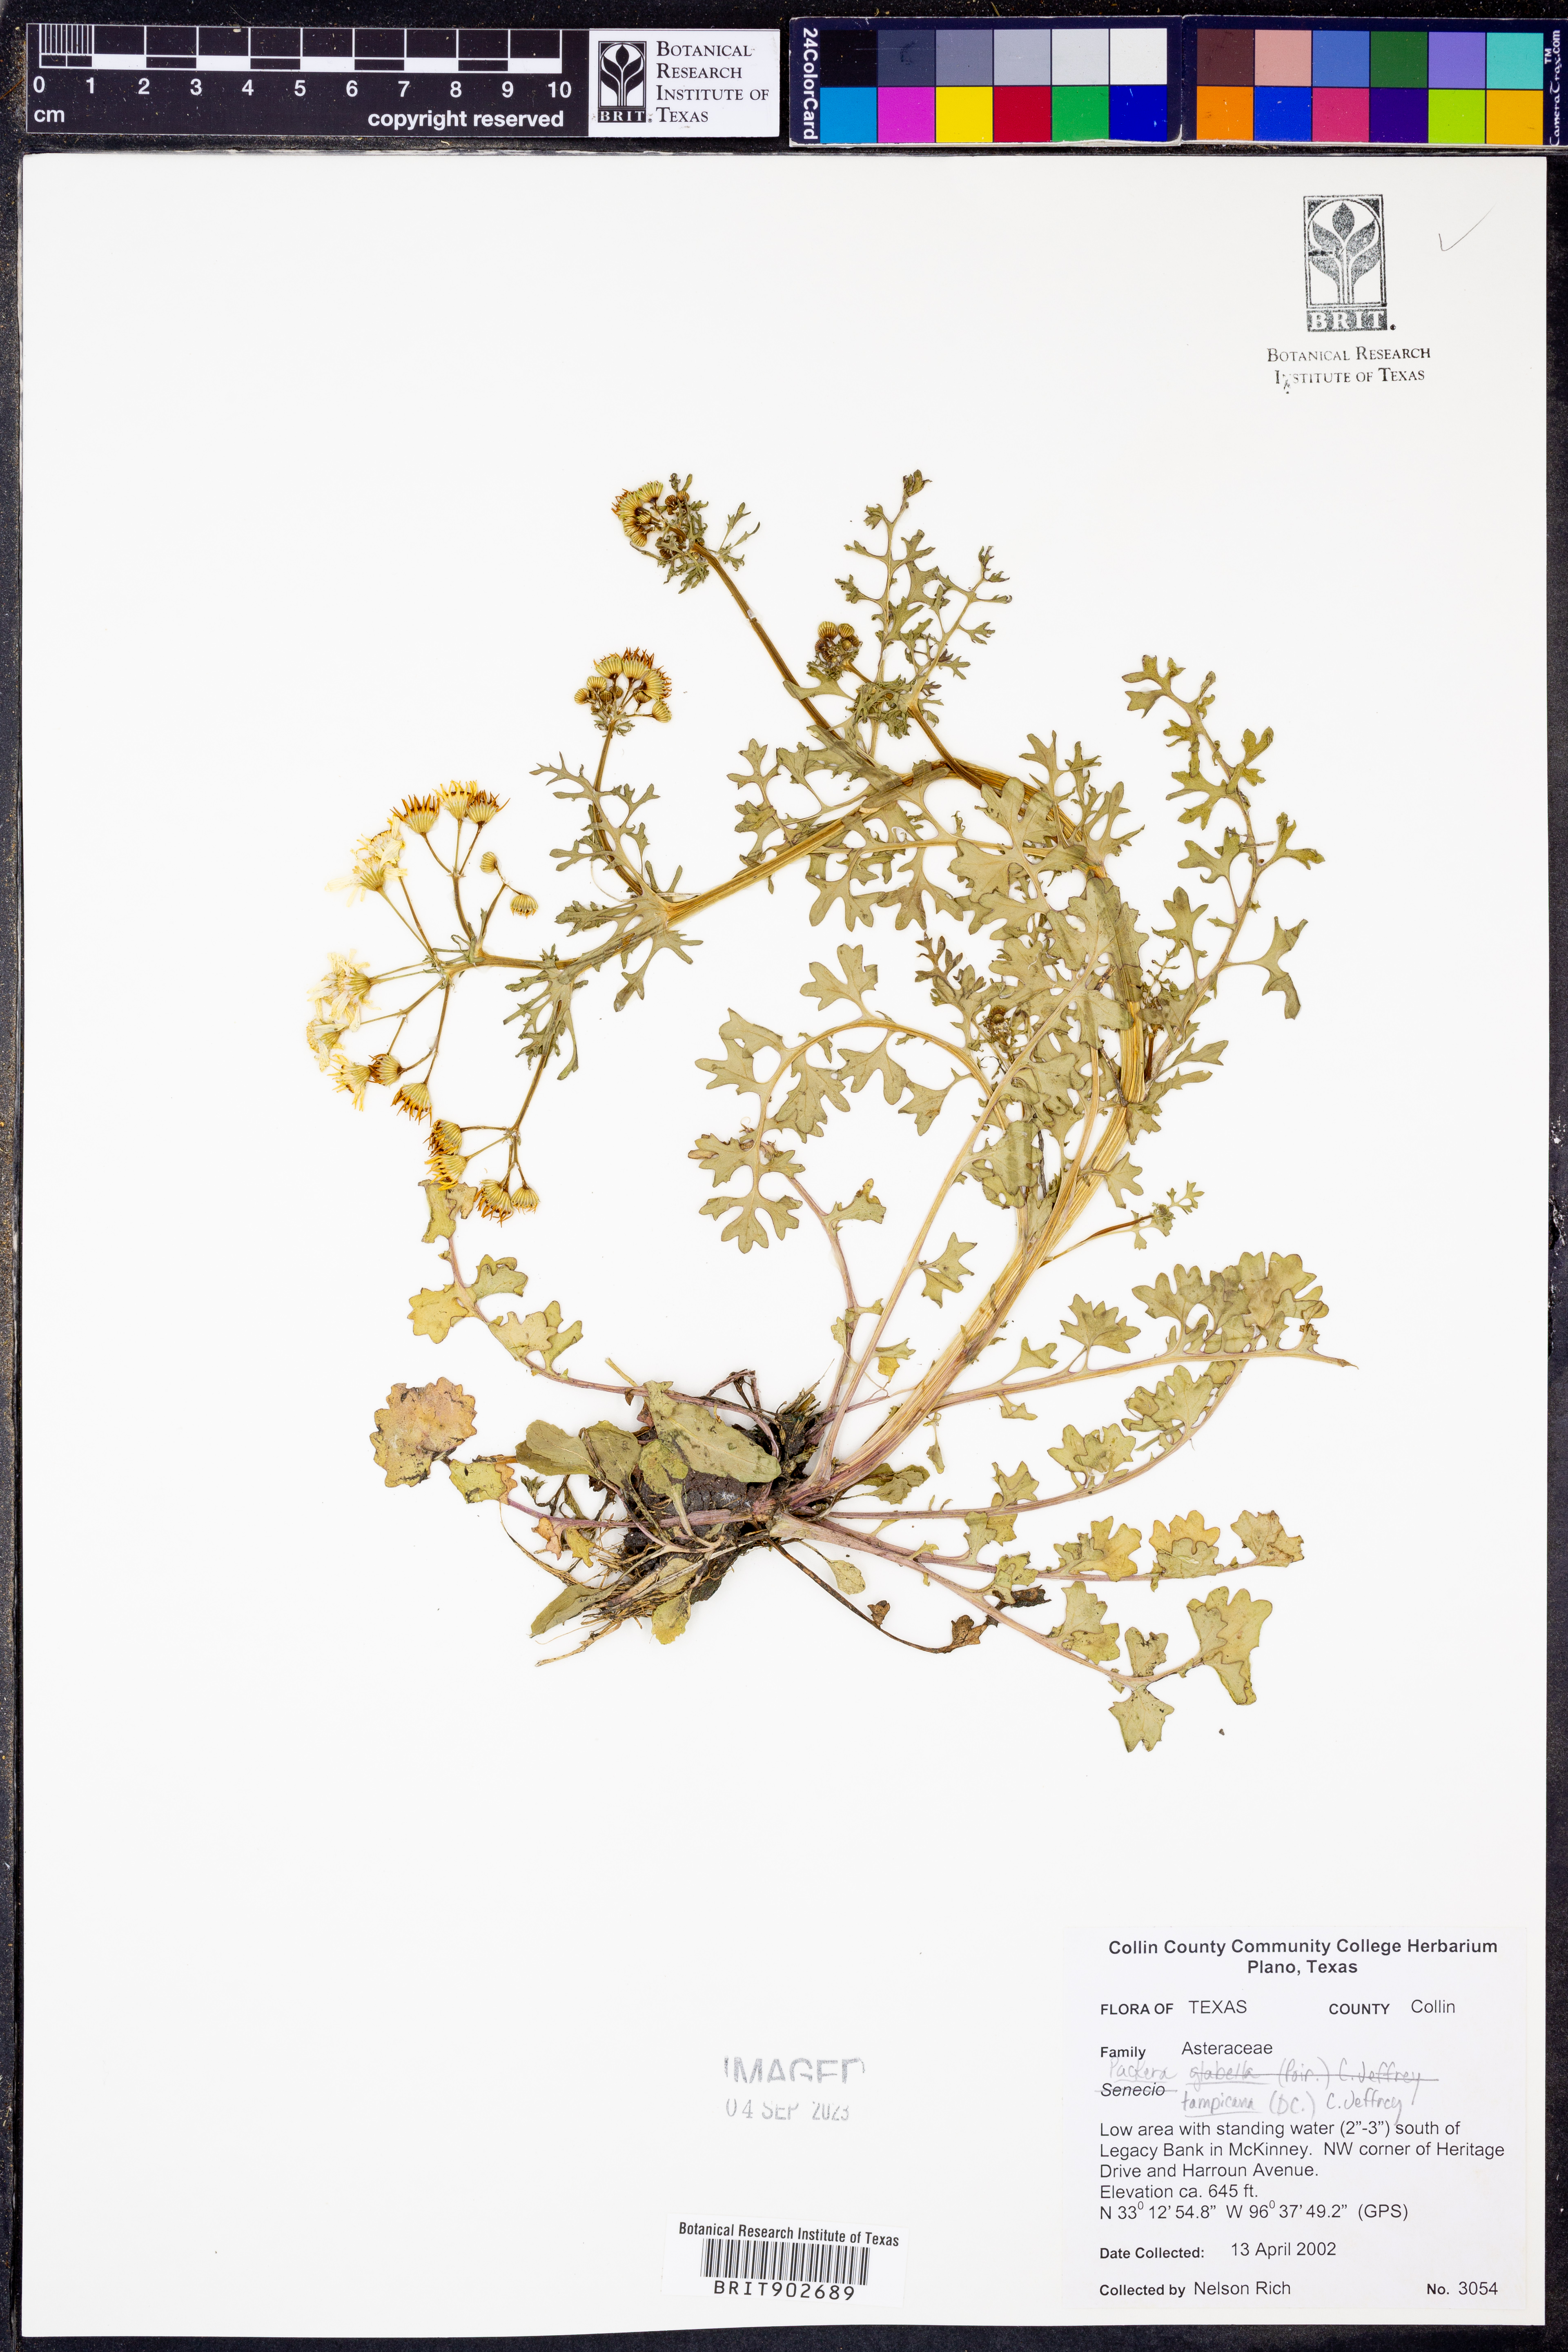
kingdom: Plantae
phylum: Tracheophyta
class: Magnoliopsida
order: Asterales
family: Asteraceae
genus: Packera
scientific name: Packera tampicana
